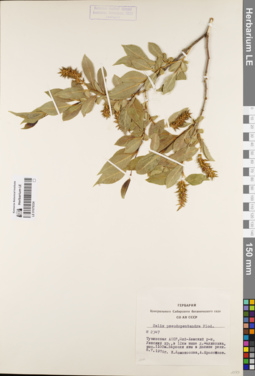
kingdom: Plantae
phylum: Tracheophyta
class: Magnoliopsida
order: Malpighiales
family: Salicaceae
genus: Salix
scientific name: Salix pseudopentandra
